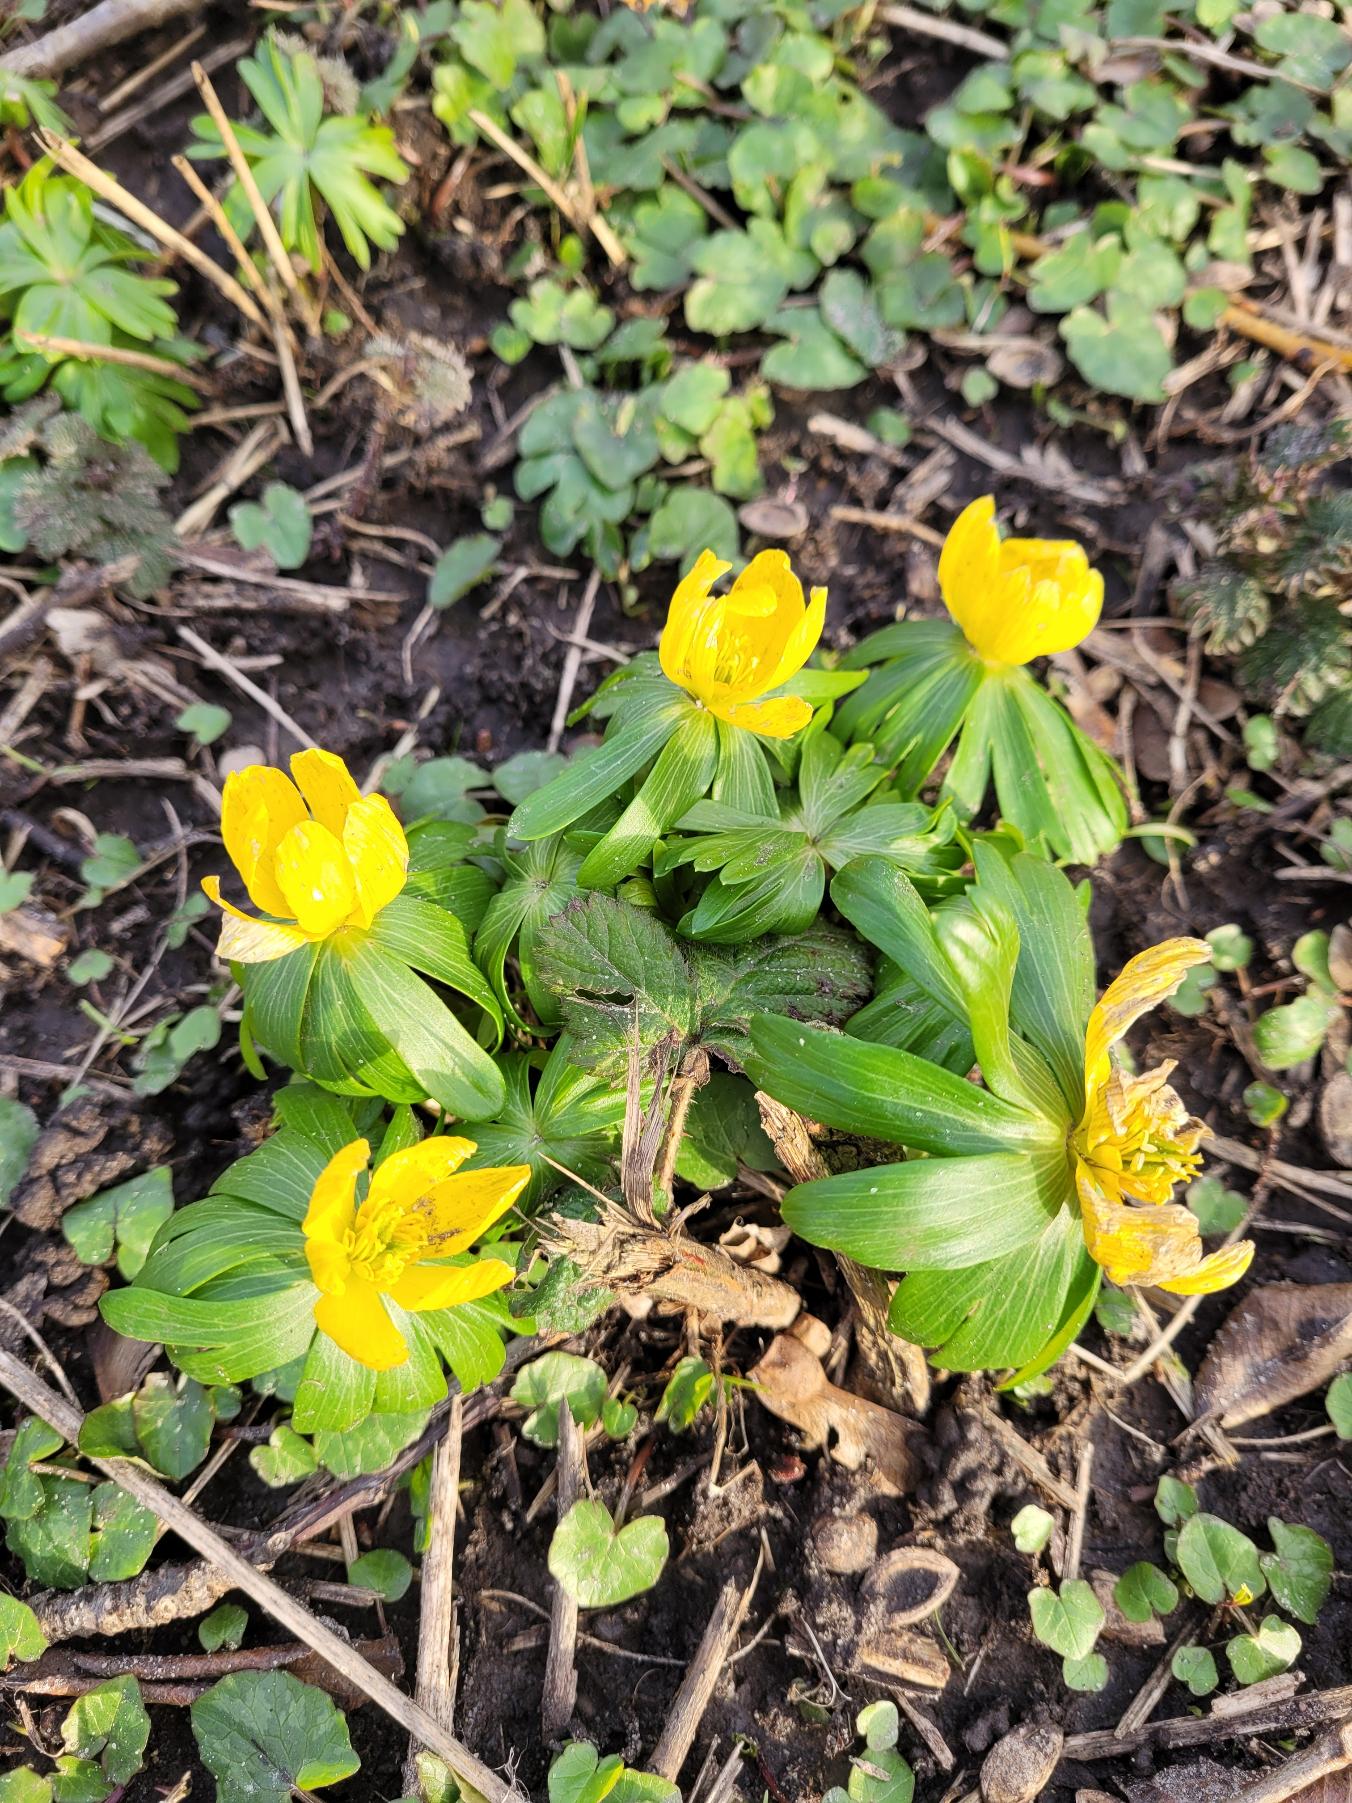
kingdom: Plantae
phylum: Tracheophyta
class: Magnoliopsida
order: Ranunculales
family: Ranunculaceae
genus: Eranthis
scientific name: Eranthis hyemalis
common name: Erantis
